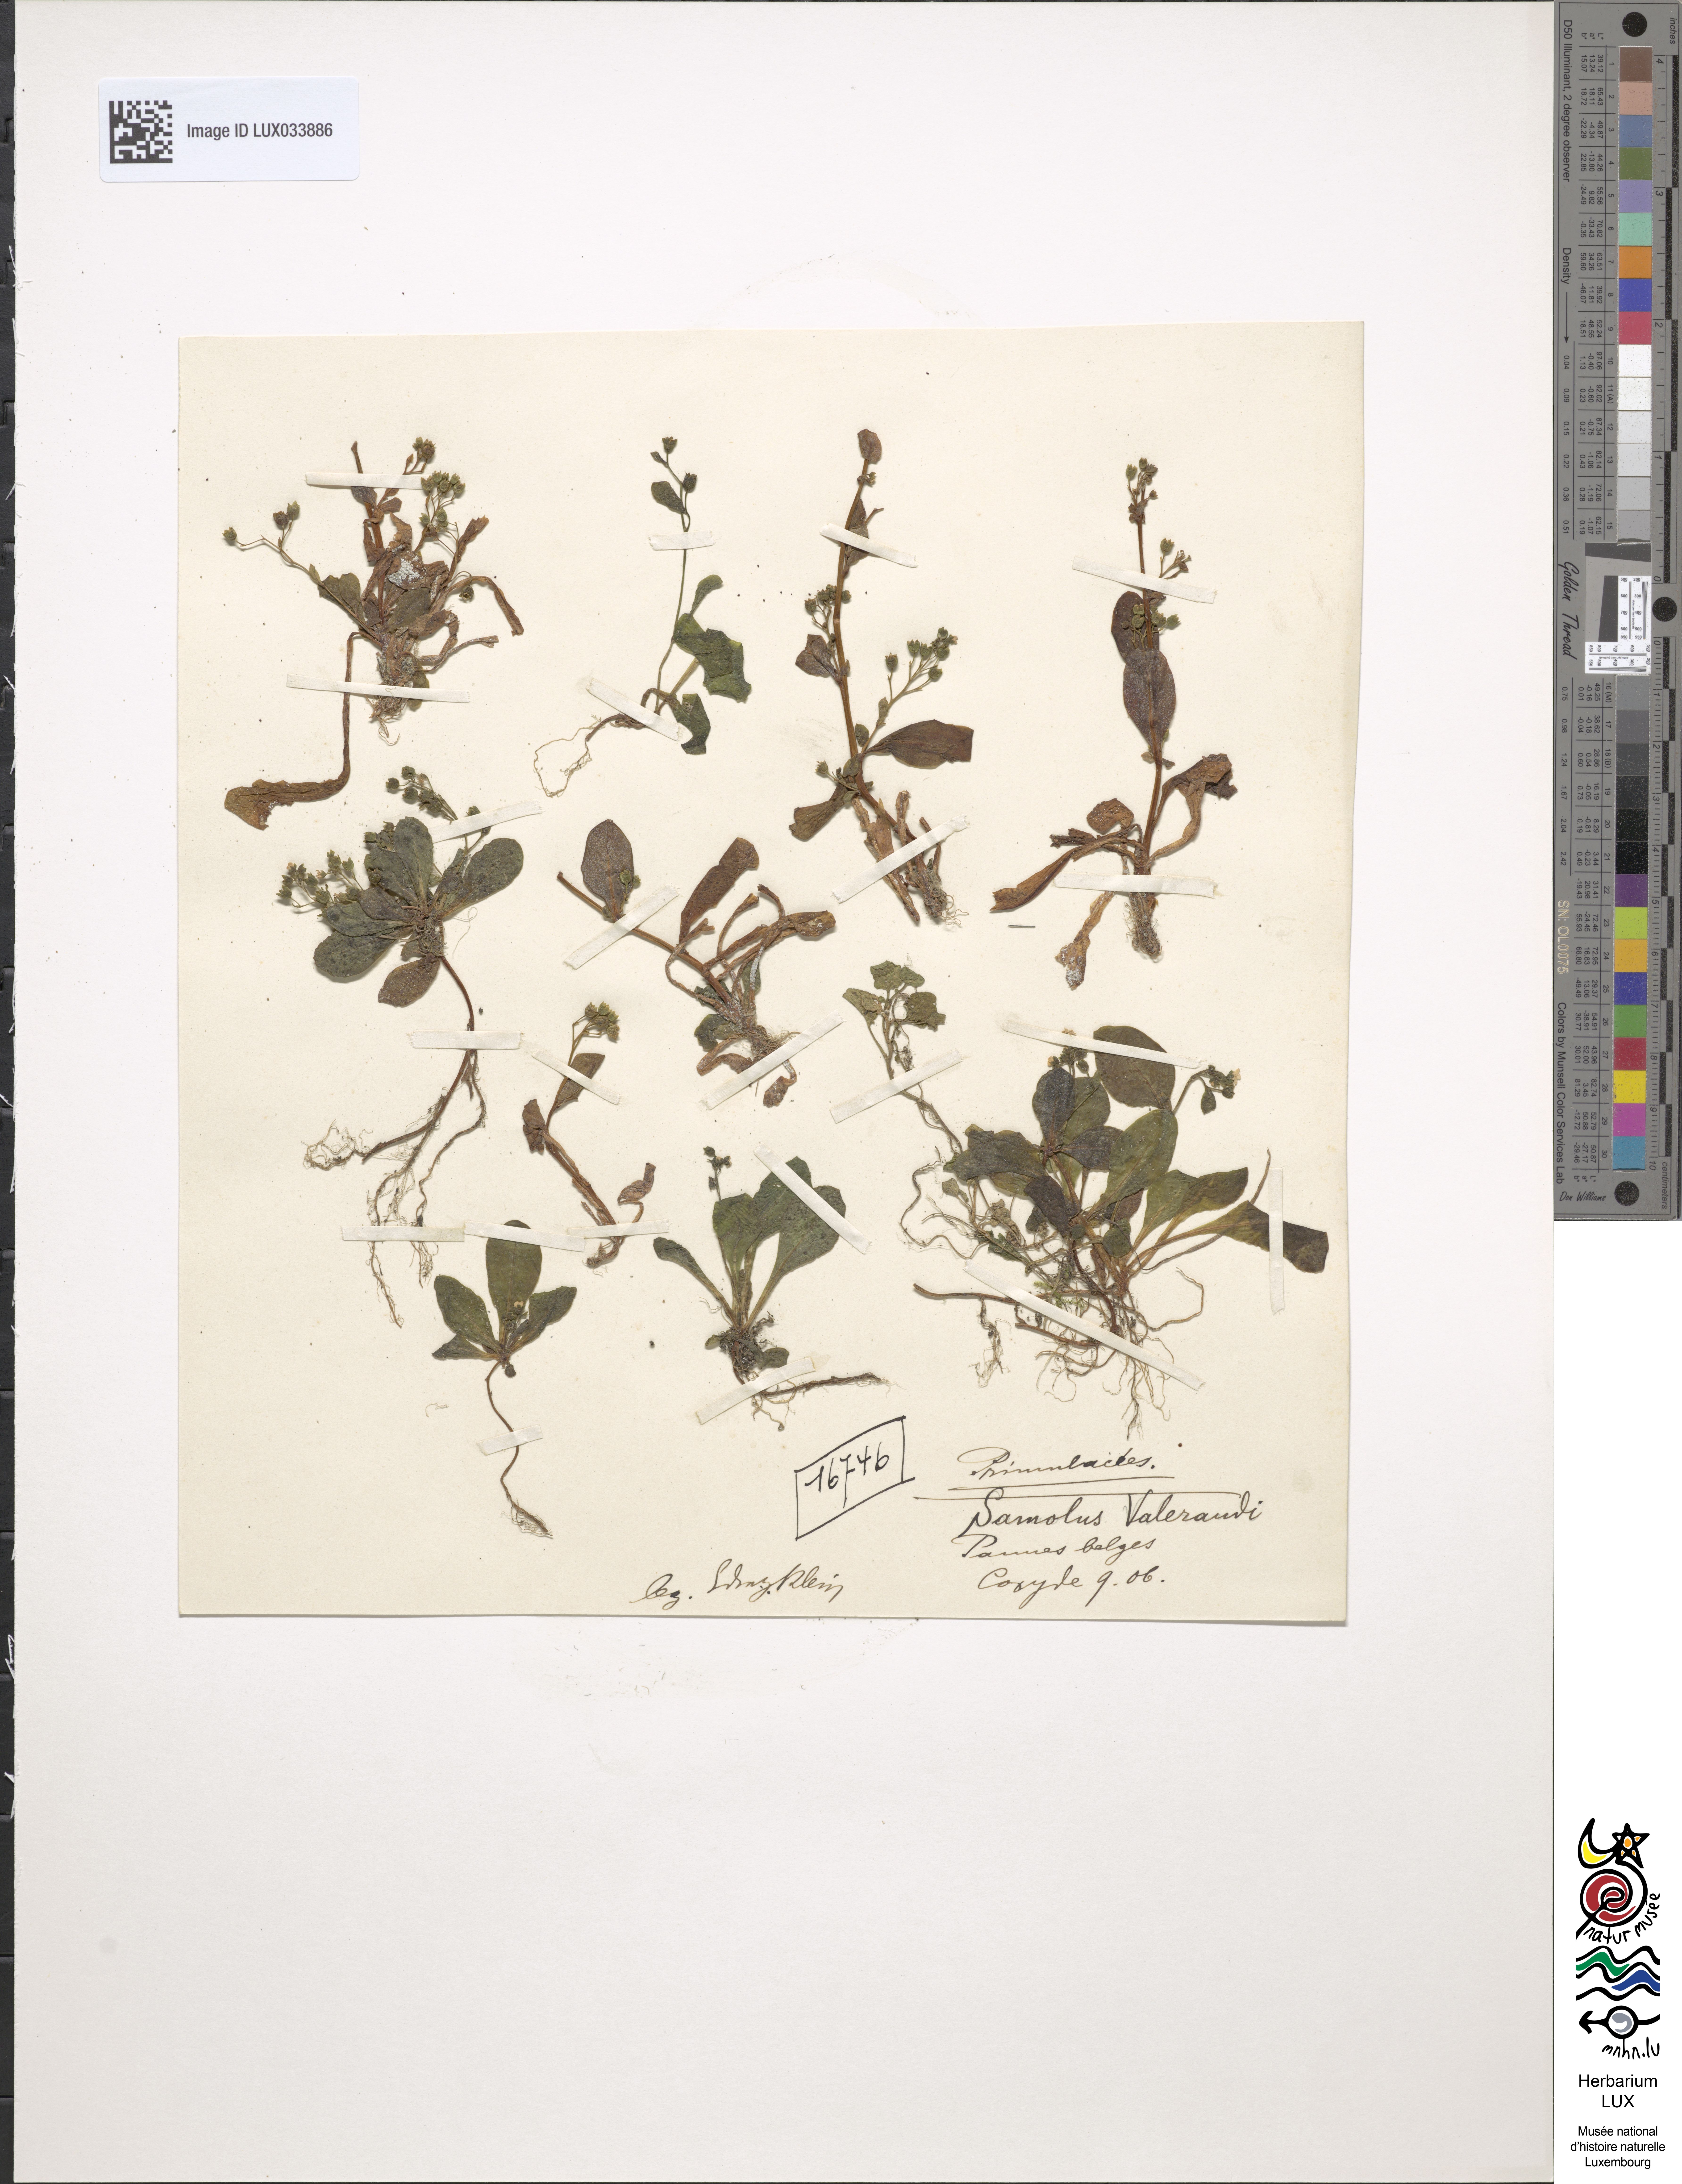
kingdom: Plantae
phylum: Tracheophyta
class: Magnoliopsida
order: Ericales
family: Primulaceae
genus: Samolus
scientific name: Samolus valerandi
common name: Brookweed
